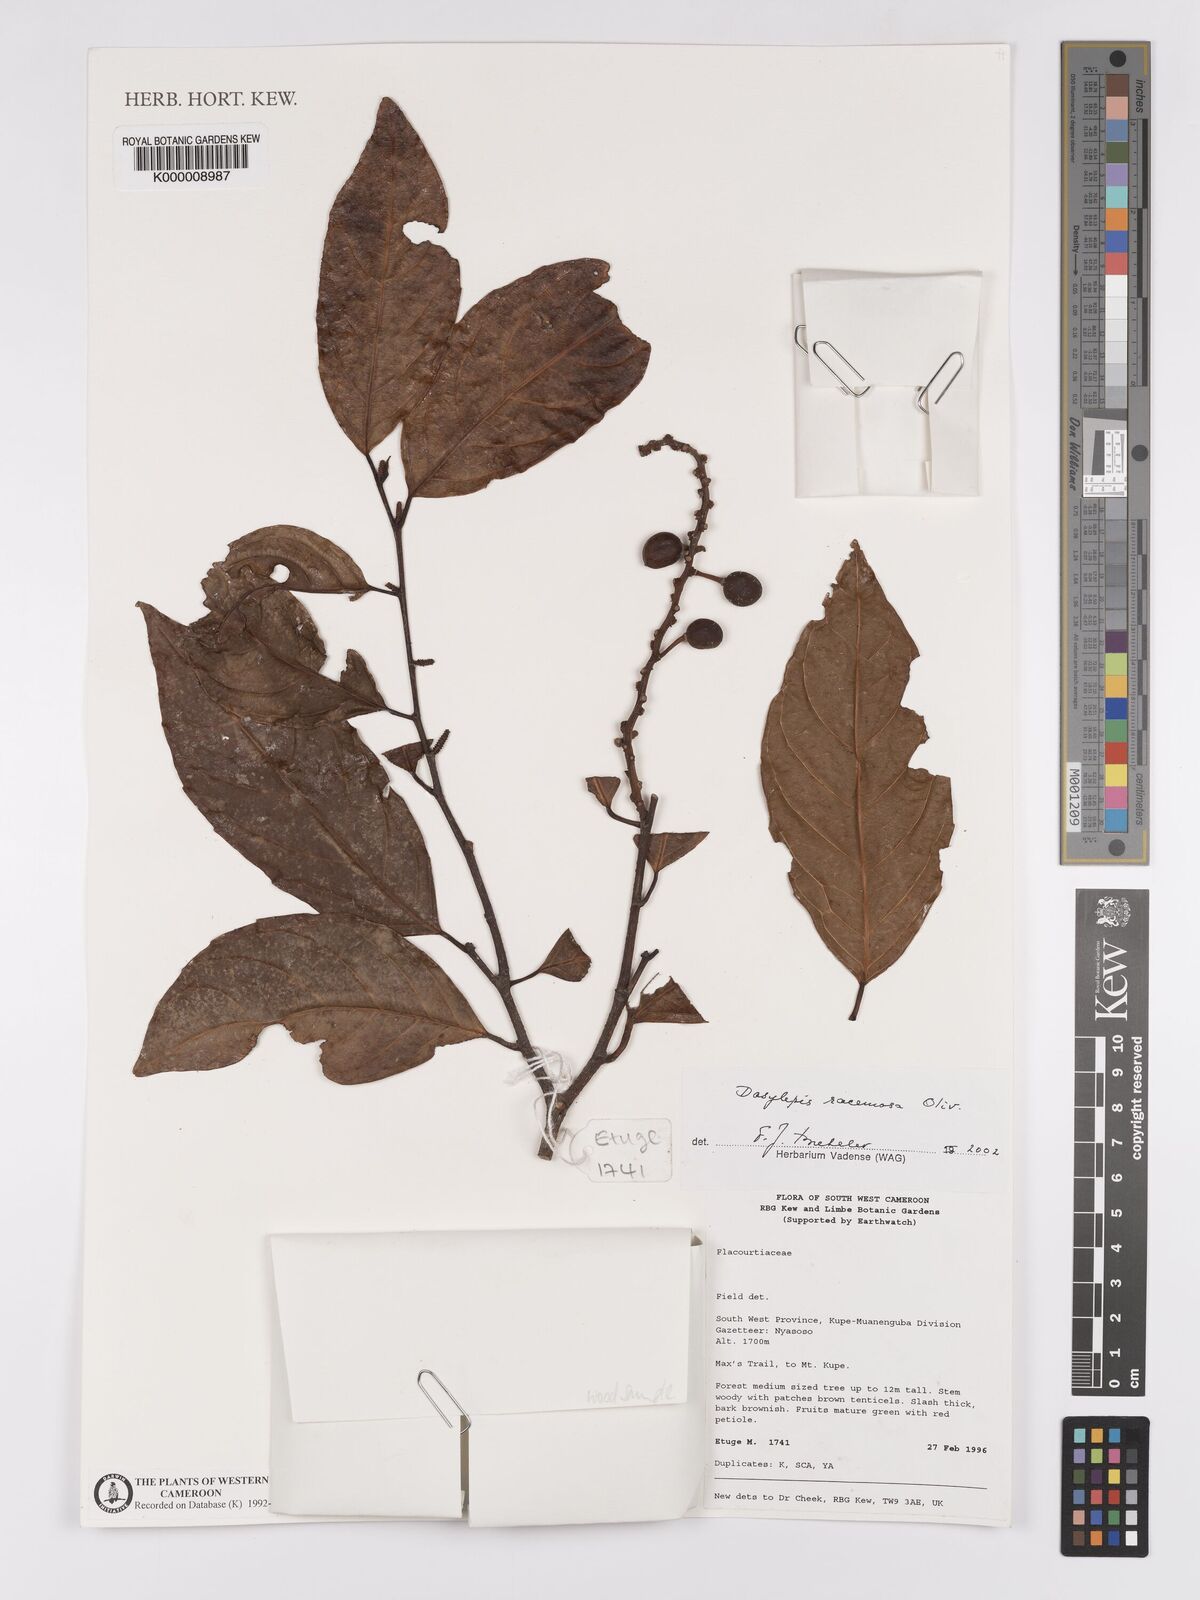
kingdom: Plantae
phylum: Tracheophyta
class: Magnoliopsida
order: Malpighiales
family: Achariaceae
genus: Dasylepis
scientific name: Dasylepis racemosa
